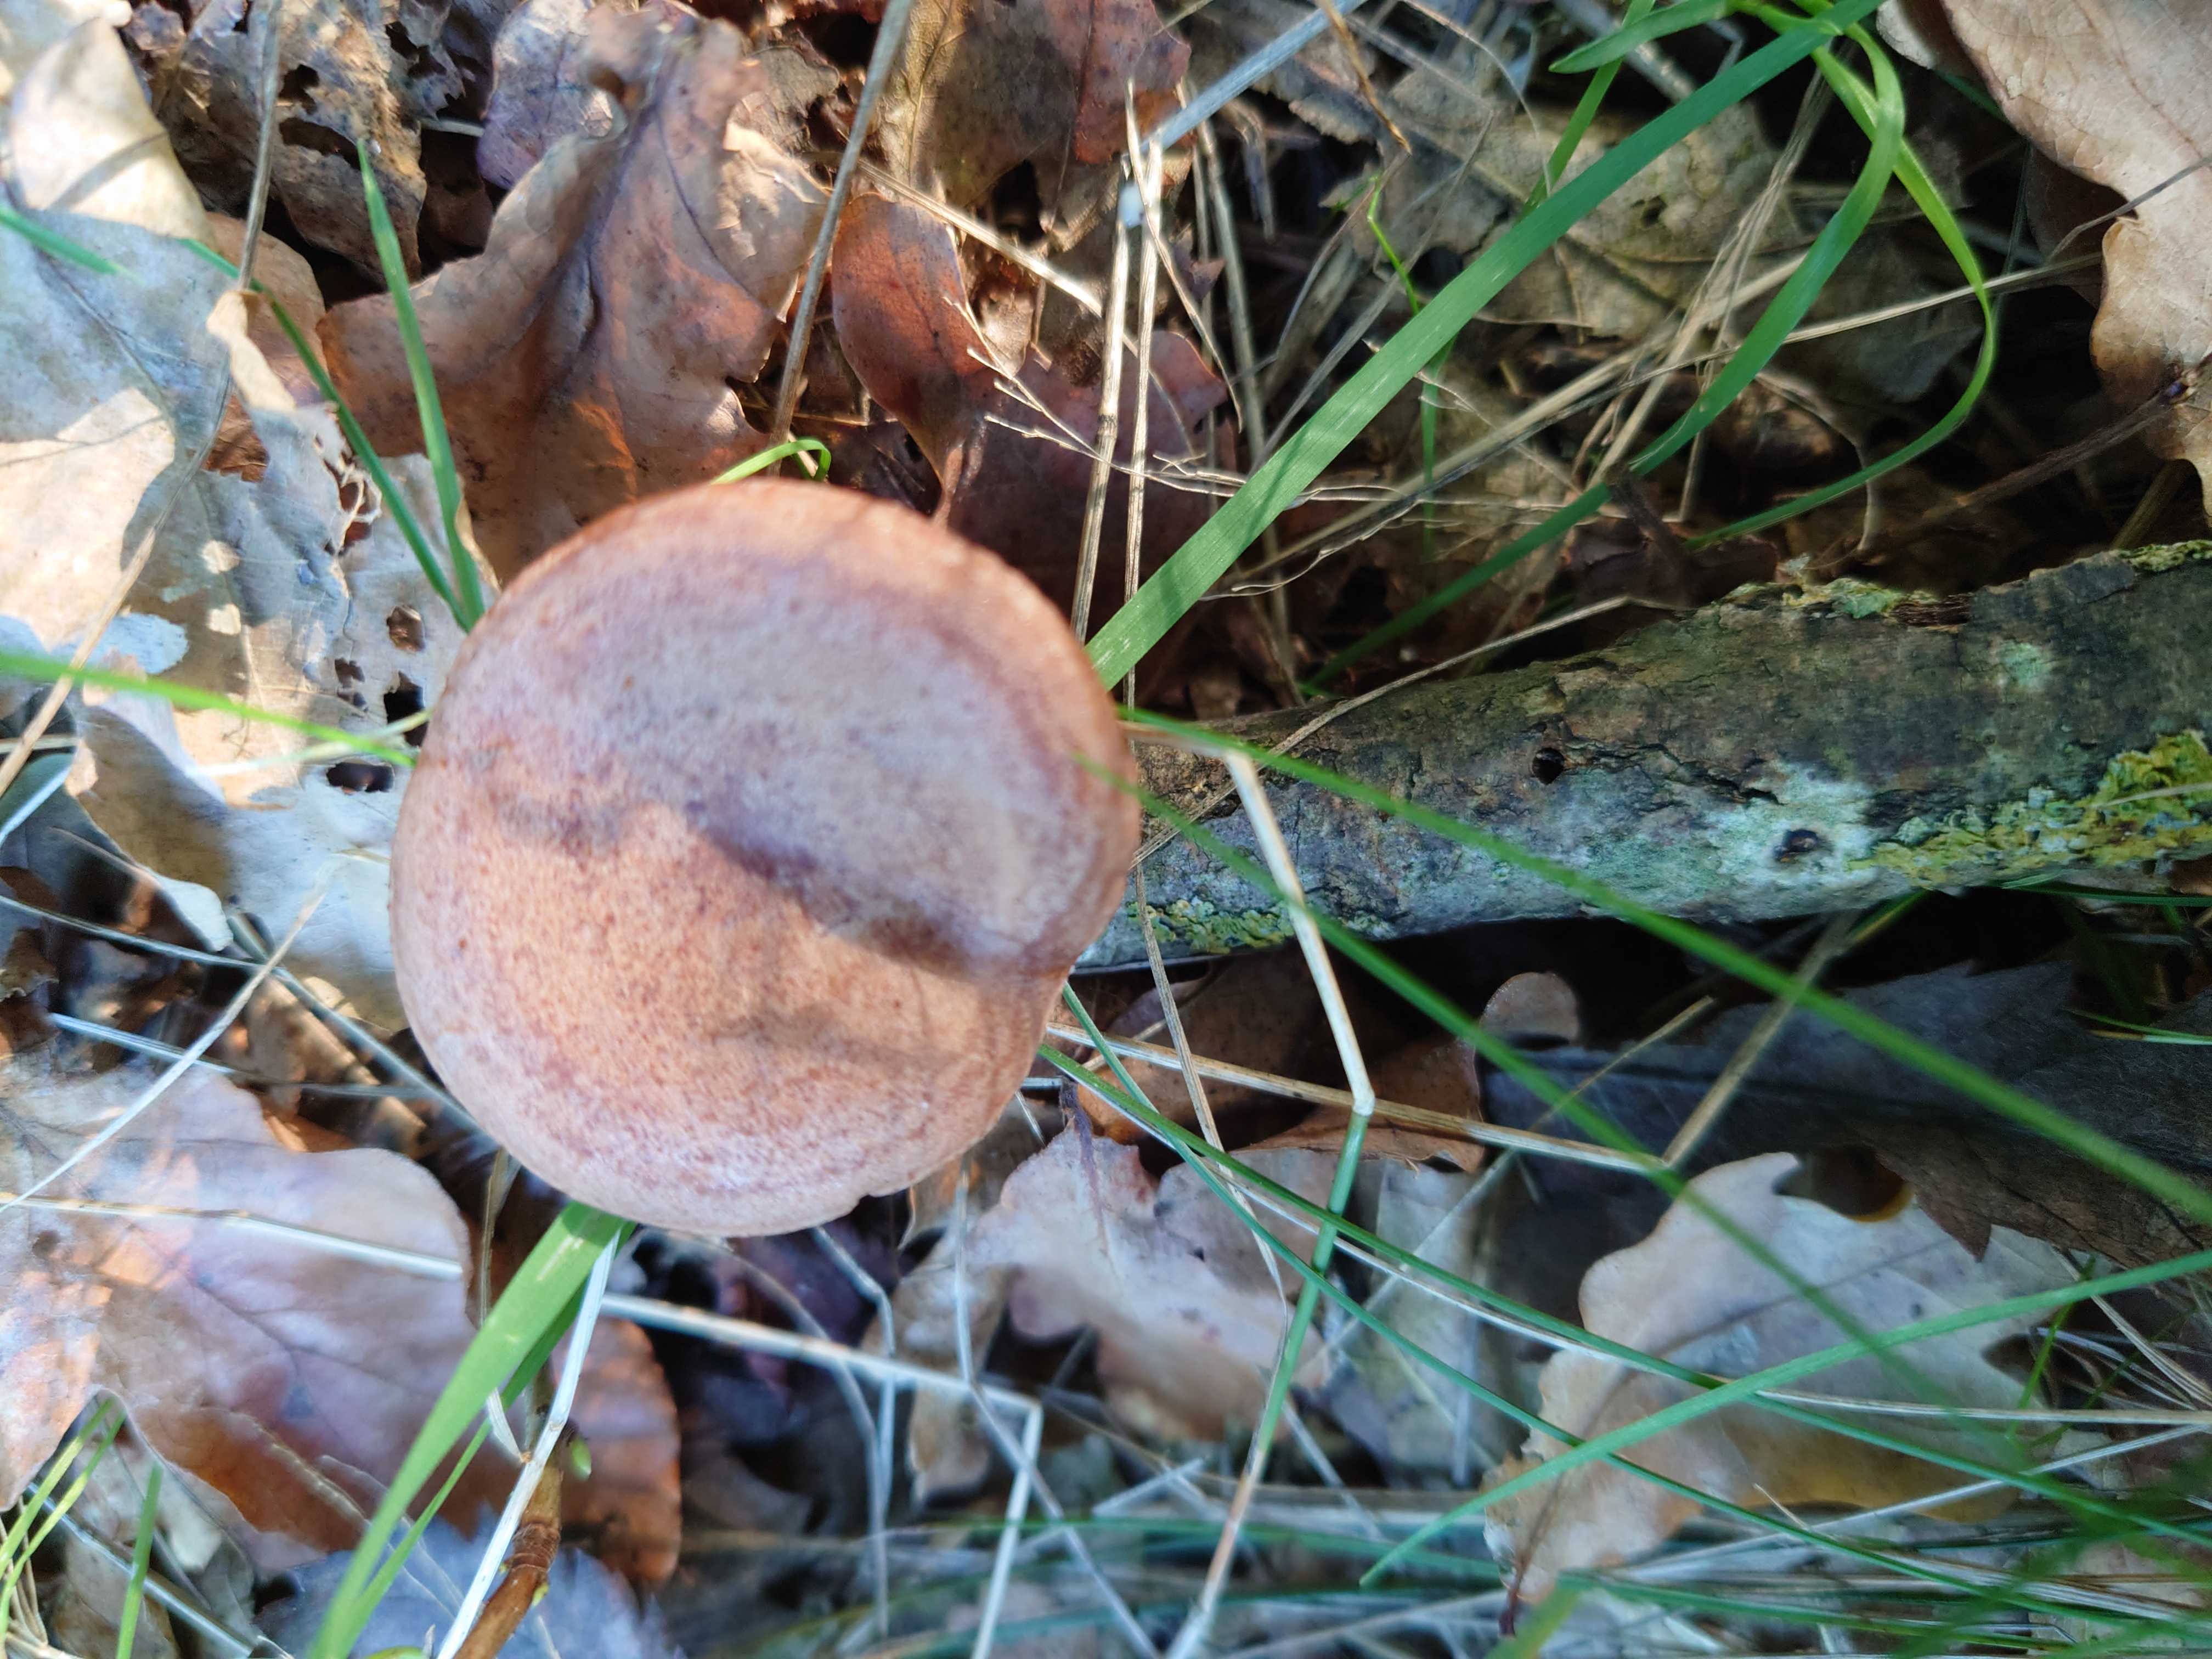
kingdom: Fungi
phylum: Basidiomycota
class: Agaricomycetes
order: Russulales
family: Russulaceae
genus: Lactarius
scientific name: Lactarius quietus
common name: ege-mælkehat
